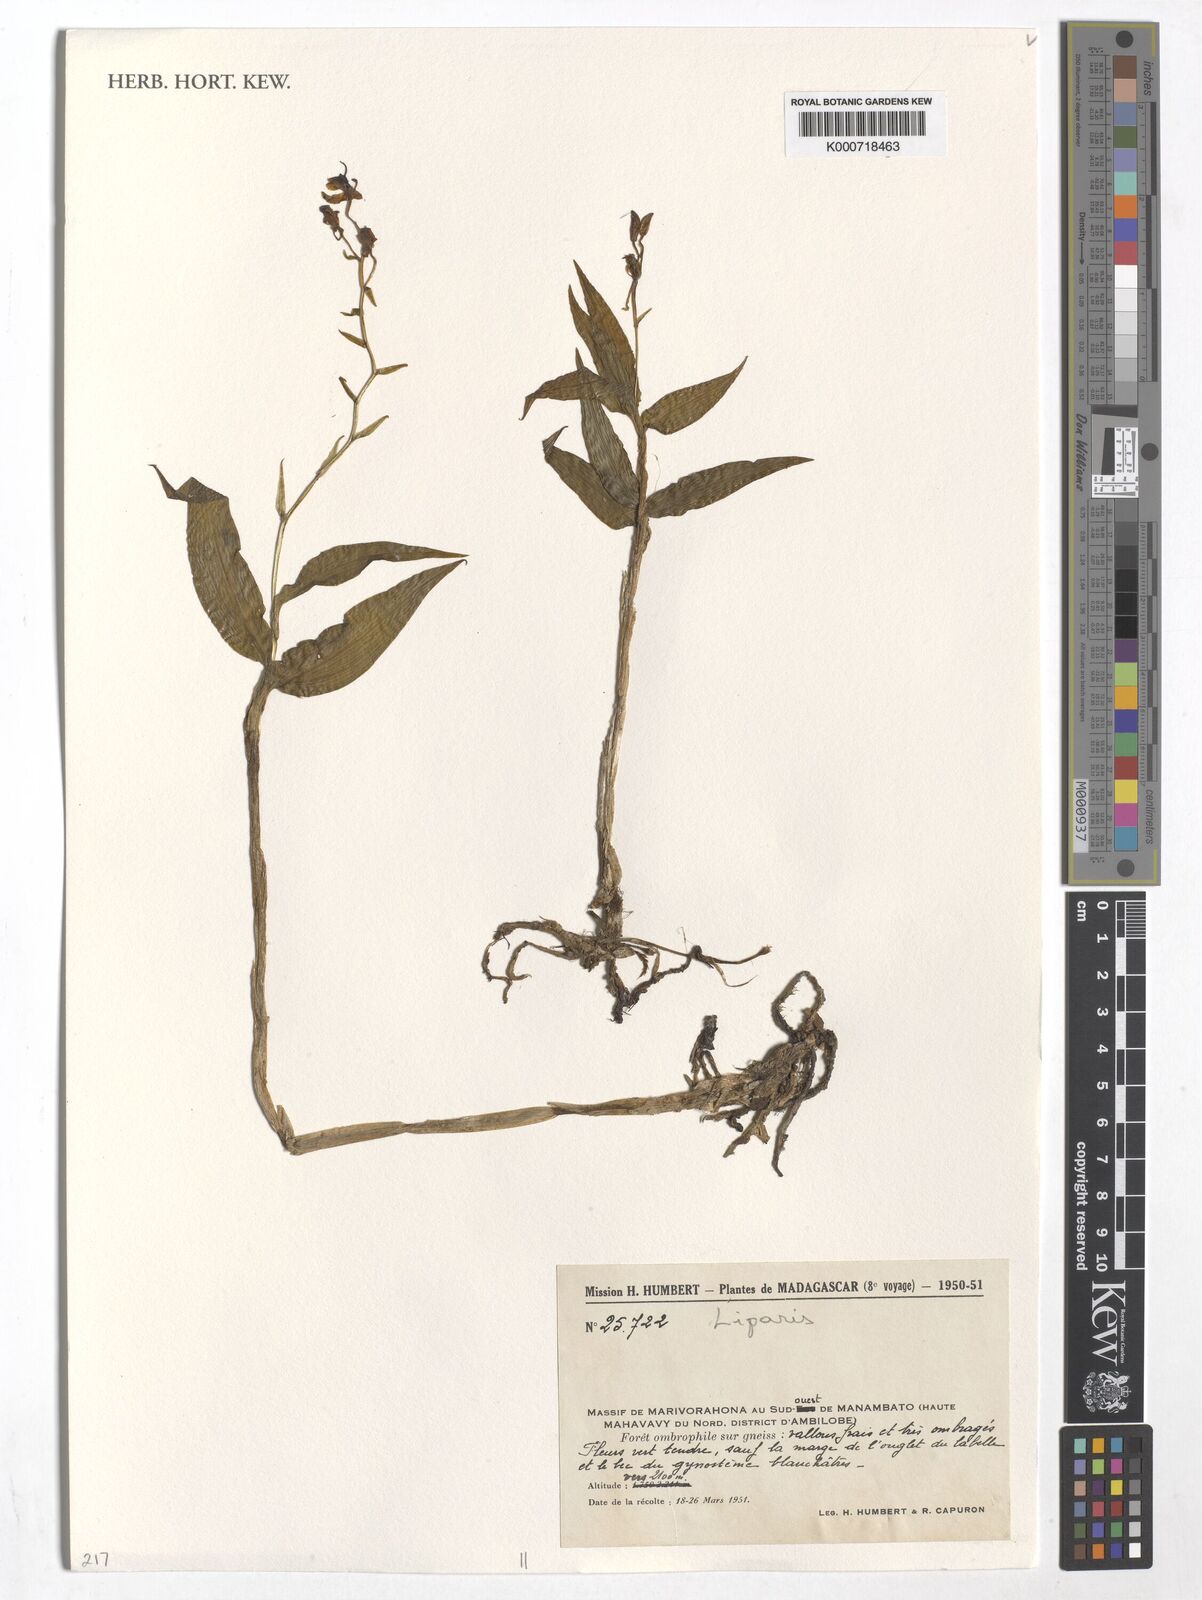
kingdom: Plantae
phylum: Tracheophyta
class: Liliopsida
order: Asparagales
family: Orchidaceae
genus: Liparis
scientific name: Liparis
